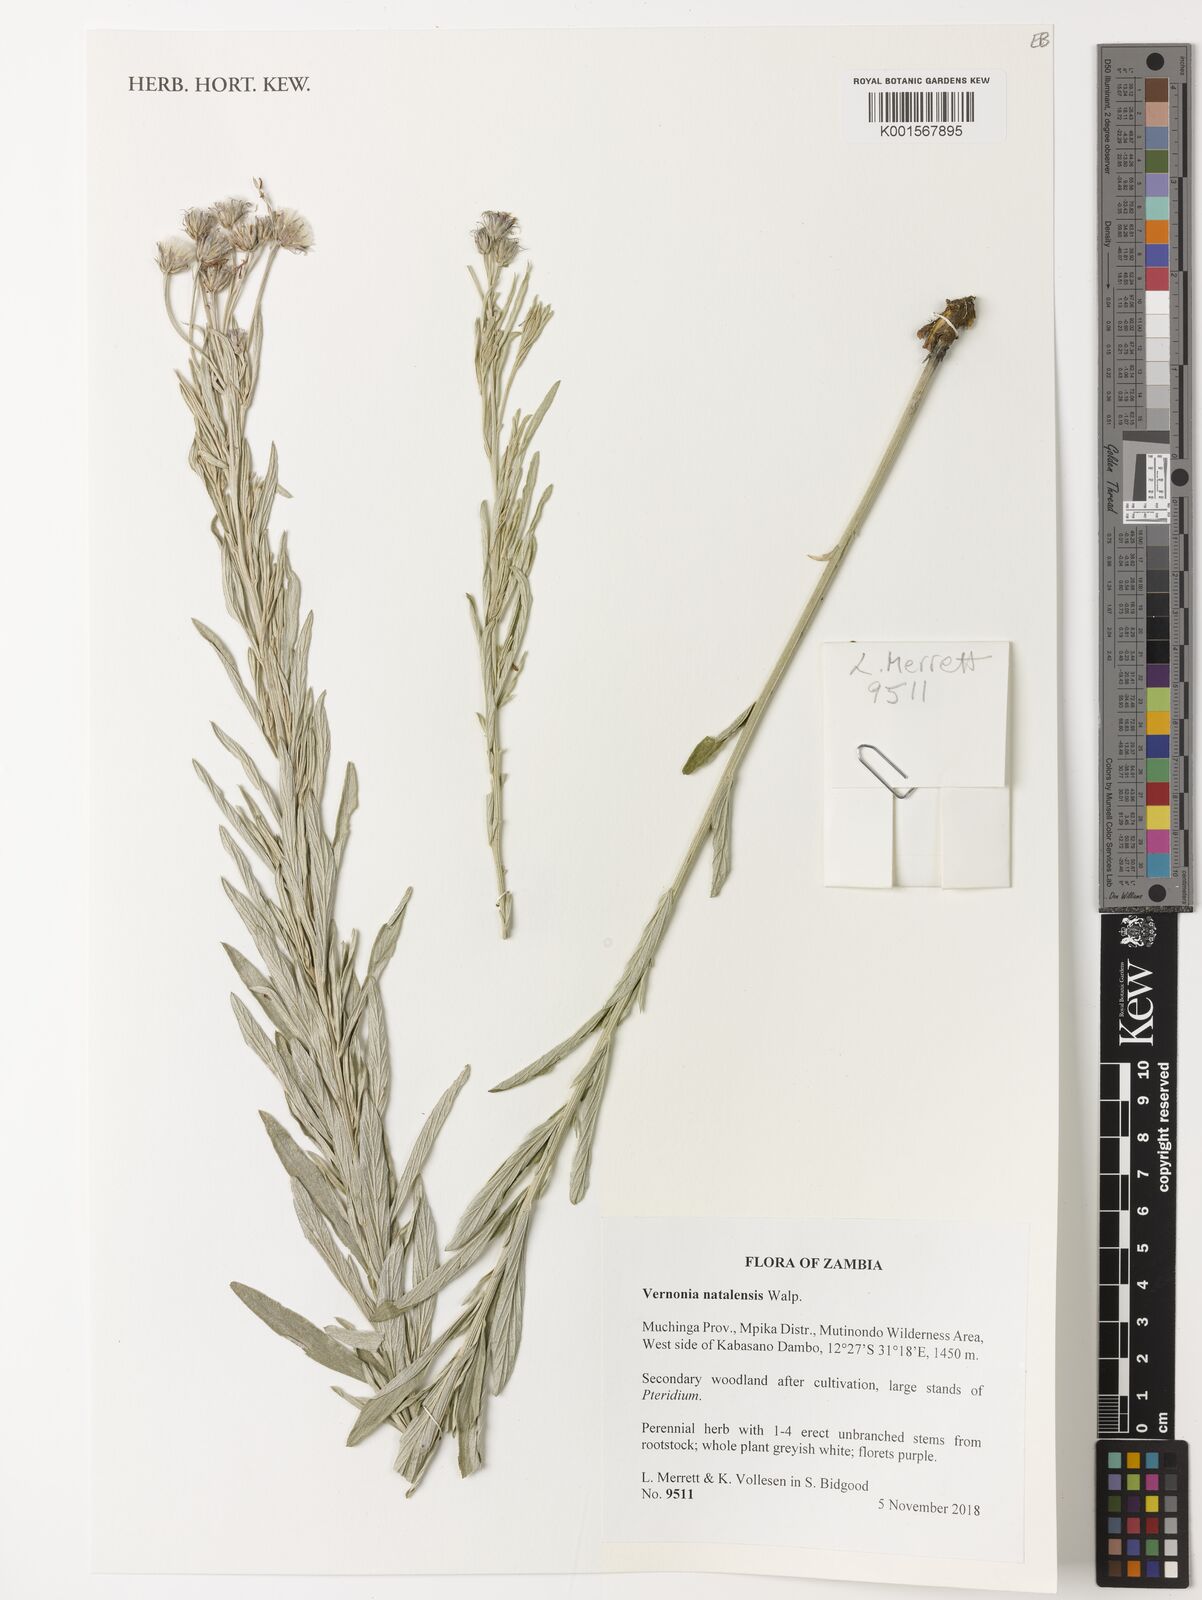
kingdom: Plantae
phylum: Tracheophyta
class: Magnoliopsida
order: Asterales
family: Asteraceae
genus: Hilliardiella
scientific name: Hilliardiella aristata
